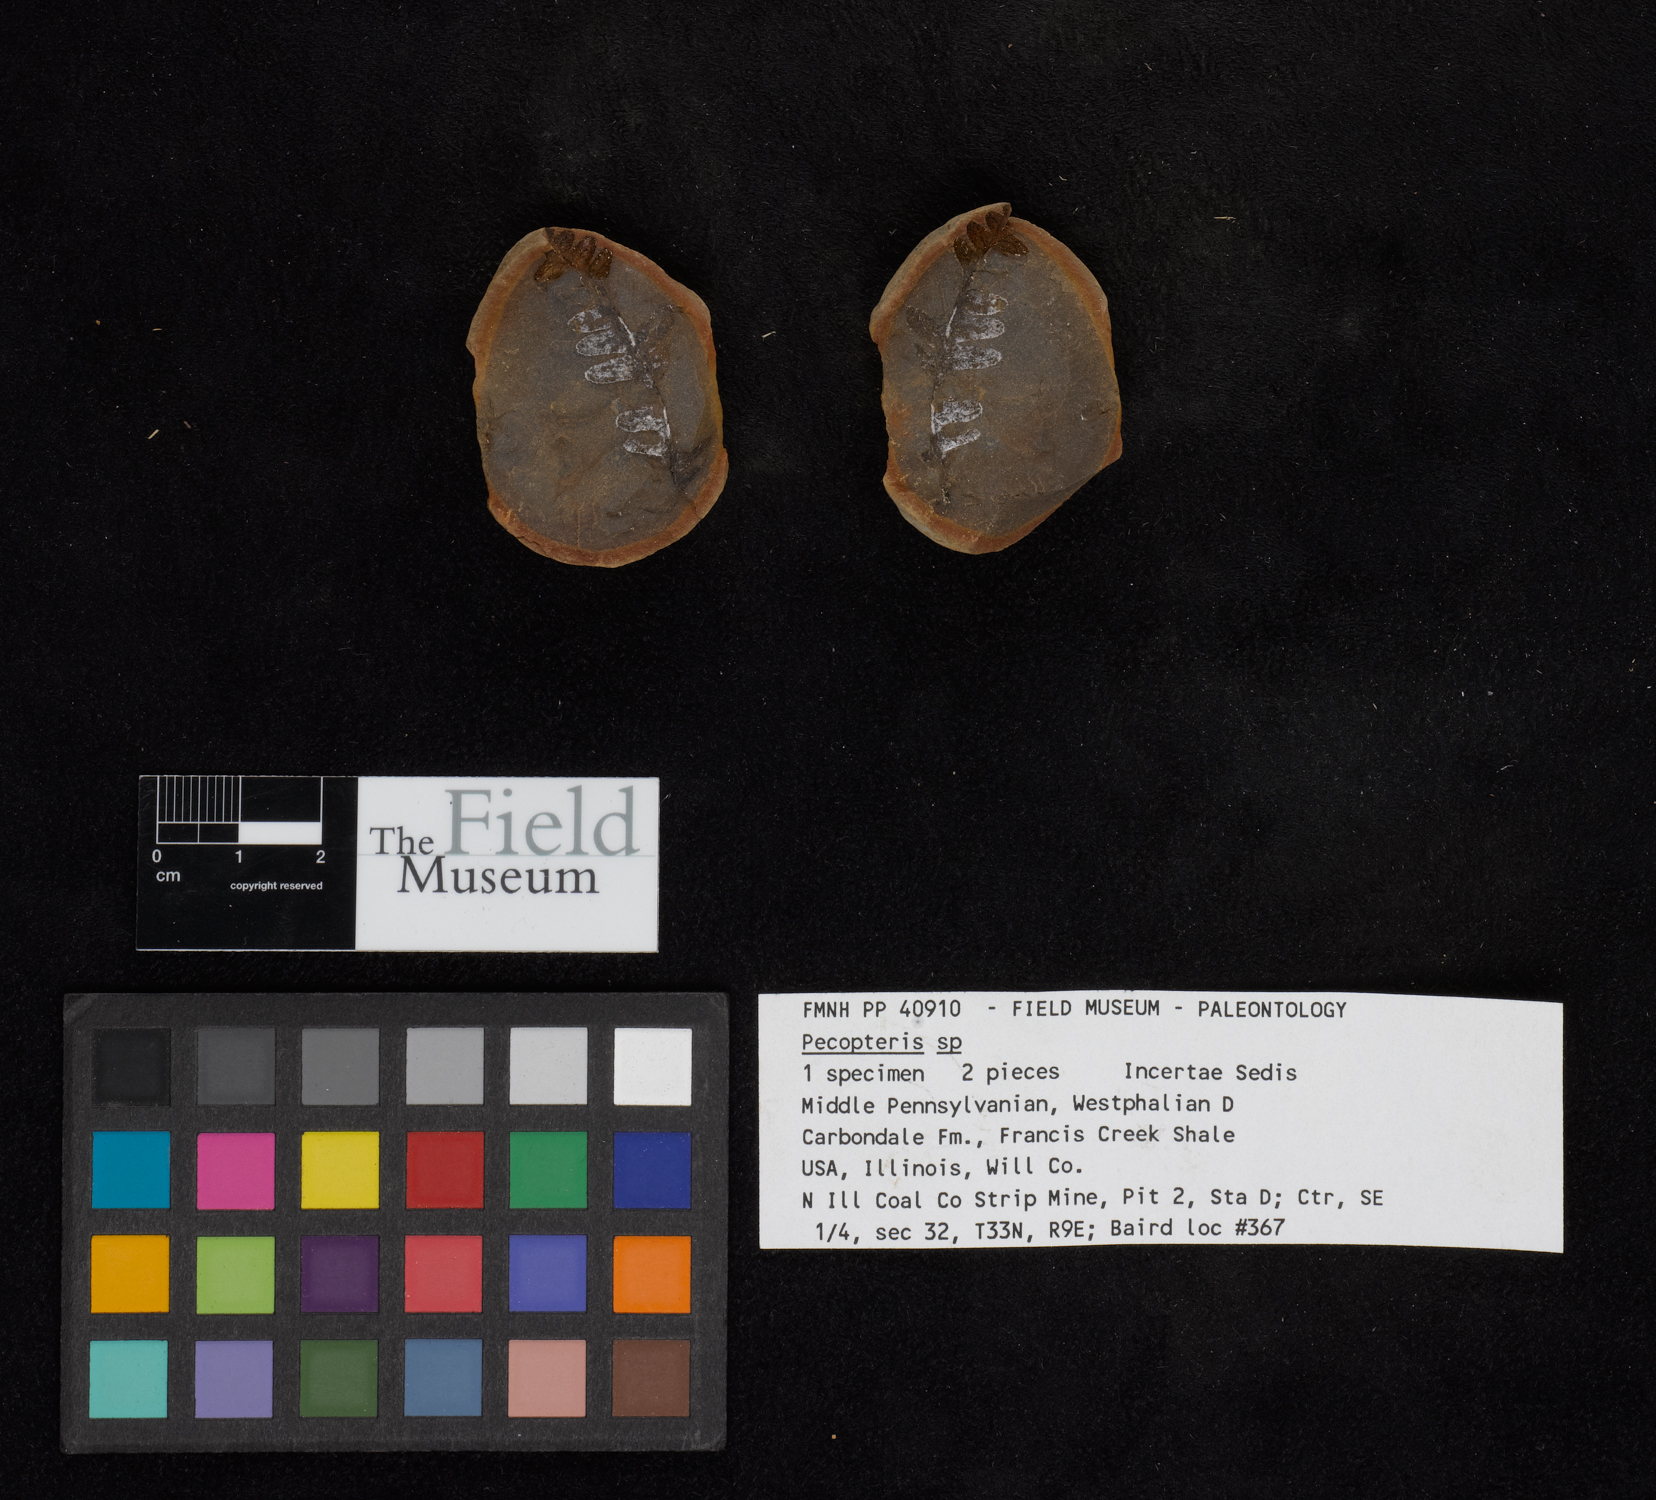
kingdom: Plantae
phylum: Tracheophyta
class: Polypodiopsida
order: Marattiales
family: Asterothecaceae
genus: Pecopteris
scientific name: Pecopteris
